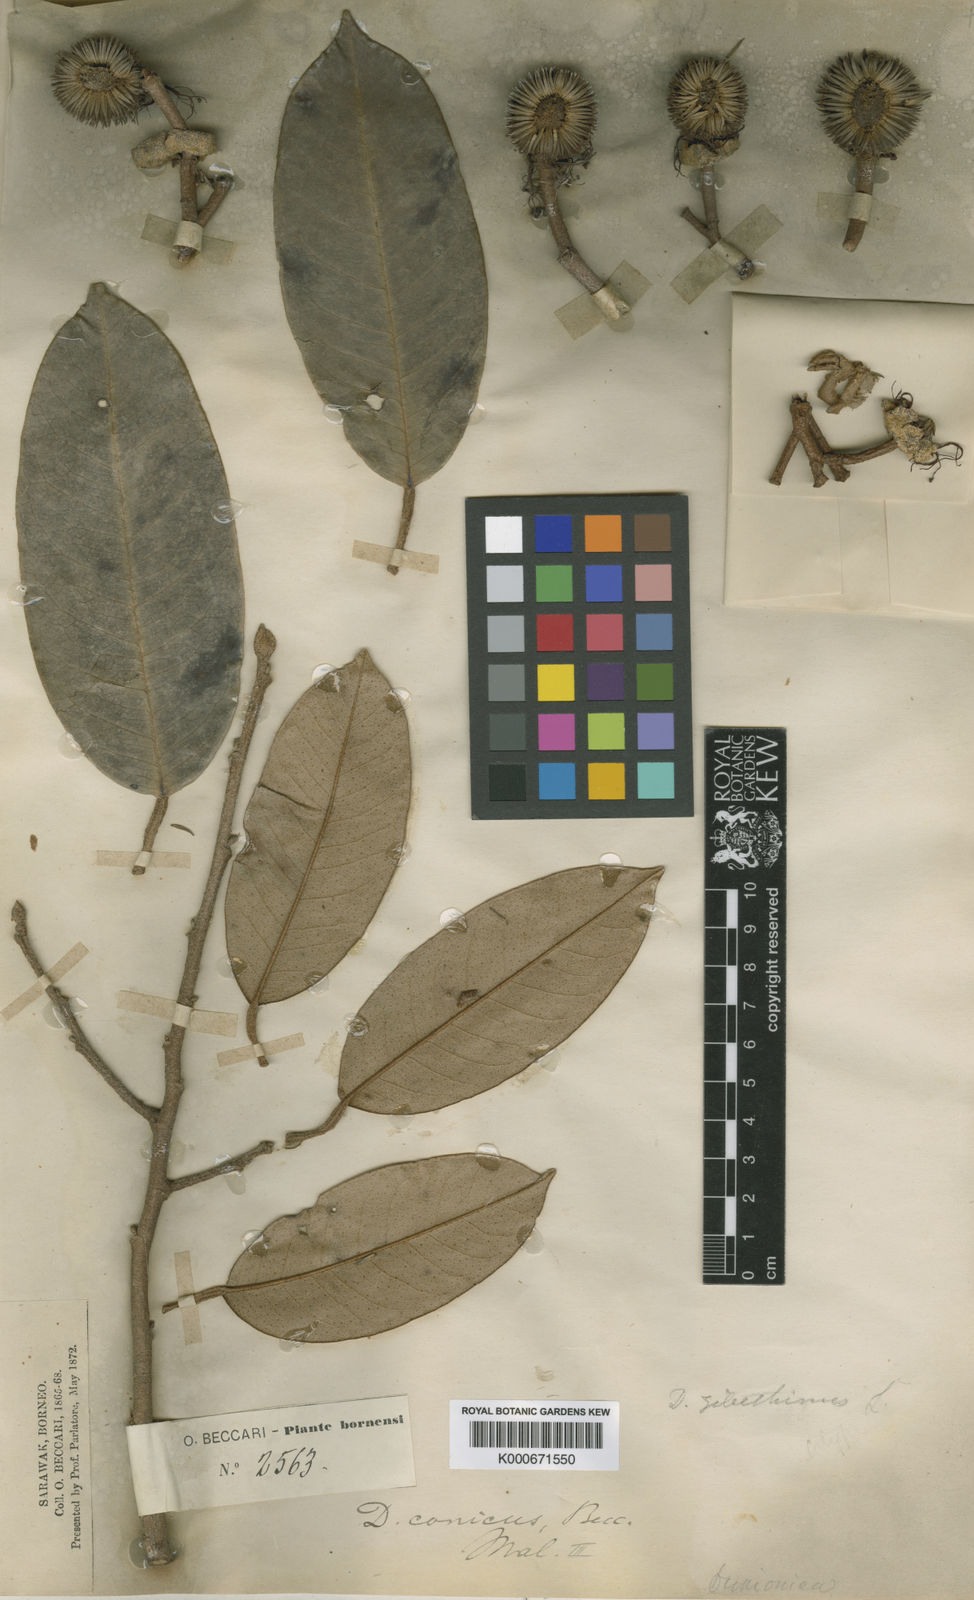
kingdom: Plantae
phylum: Tracheophyta
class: Magnoliopsida
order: Malvales
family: Malvaceae
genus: Durio
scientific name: Durio dulcis
